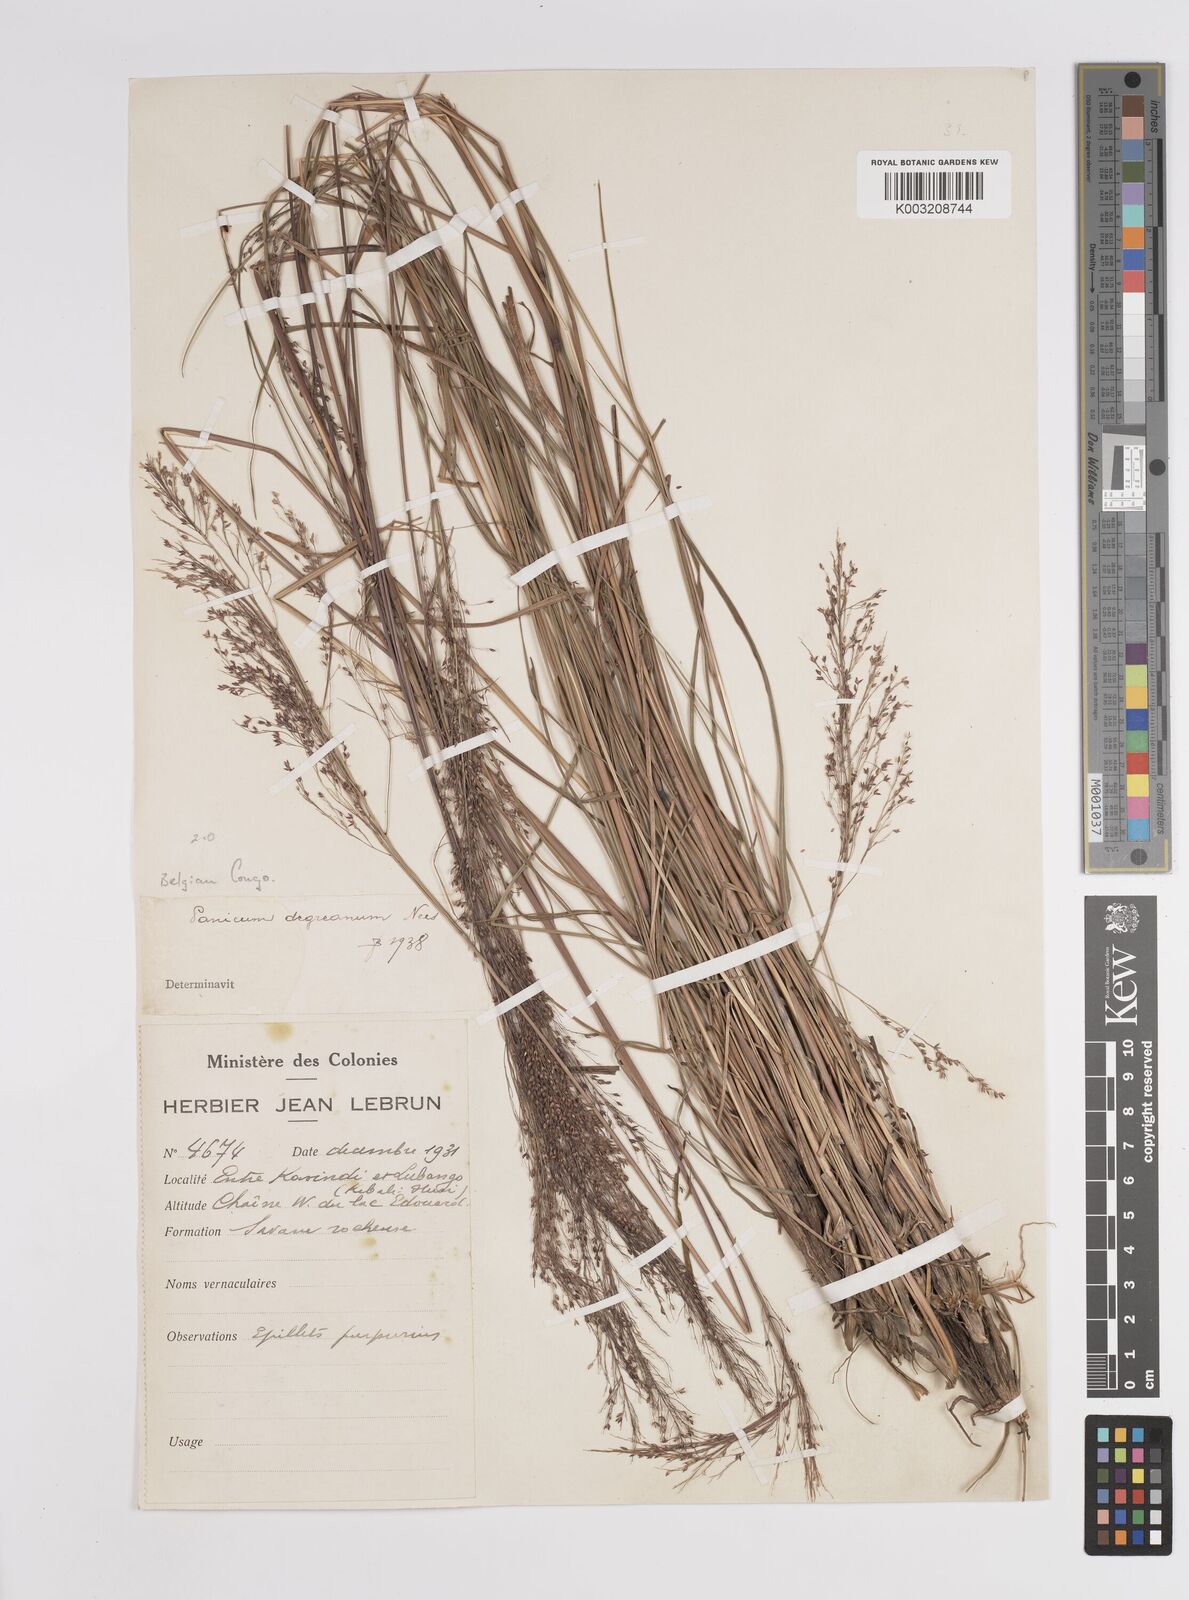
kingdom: Plantae
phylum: Tracheophyta
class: Liliopsida
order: Poales
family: Poaceae
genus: Panicum
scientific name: Panicum dregeanum
